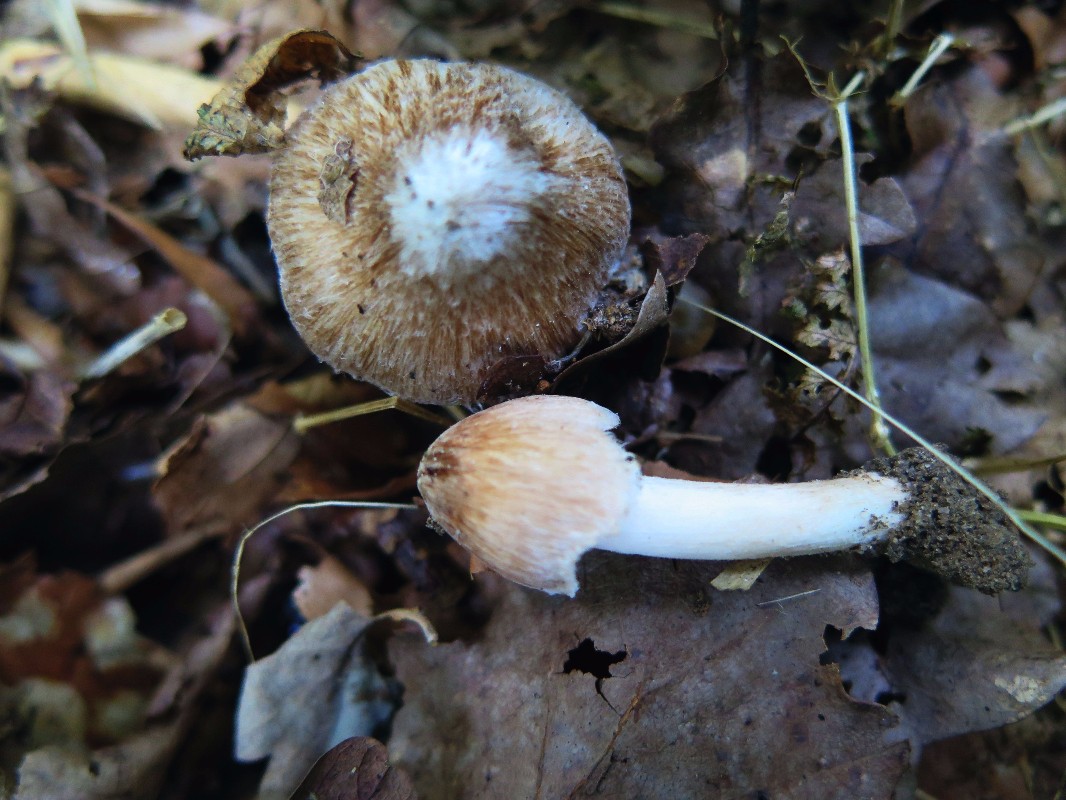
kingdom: Fungi
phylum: Basidiomycota
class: Agaricomycetes
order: Agaricales
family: Inocybaceae
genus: Inosperma
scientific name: Inosperma
